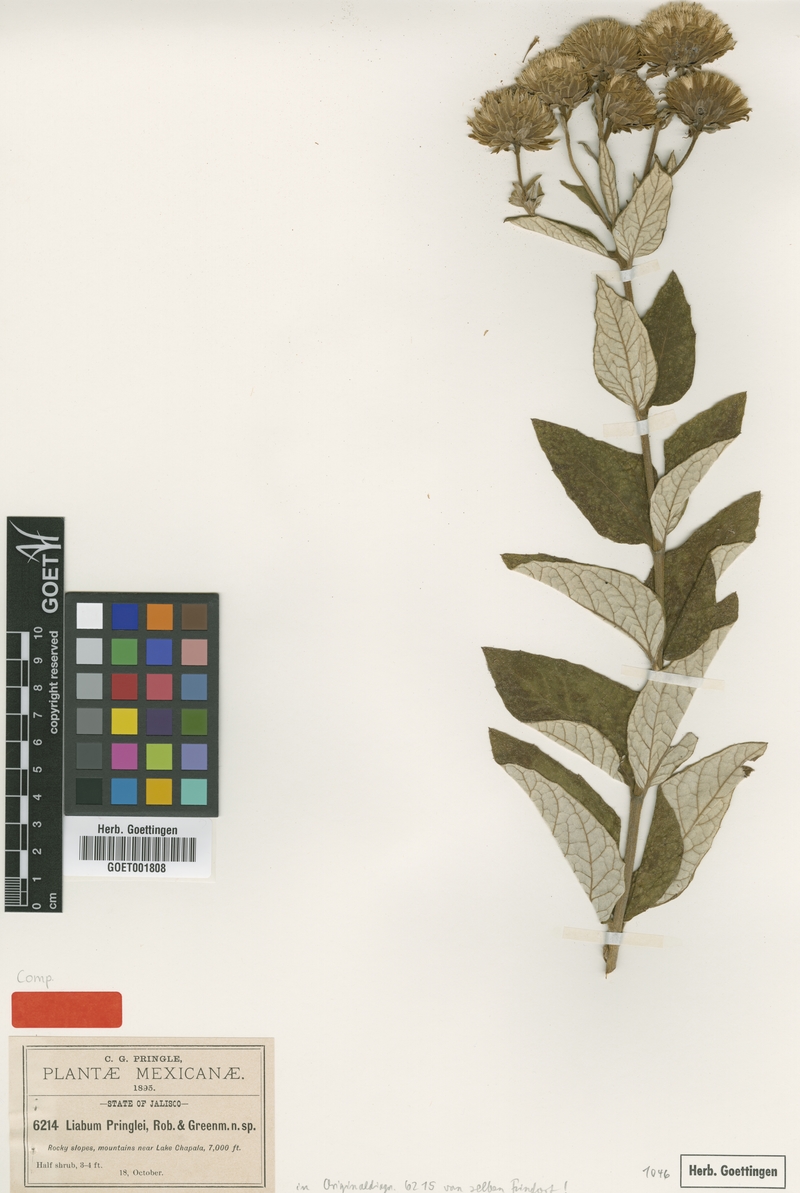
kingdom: Plantae
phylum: Tracheophyta
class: Magnoliopsida
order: Asterales
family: Asteraceae
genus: Sinclairia
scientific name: Sinclairia pringlei
